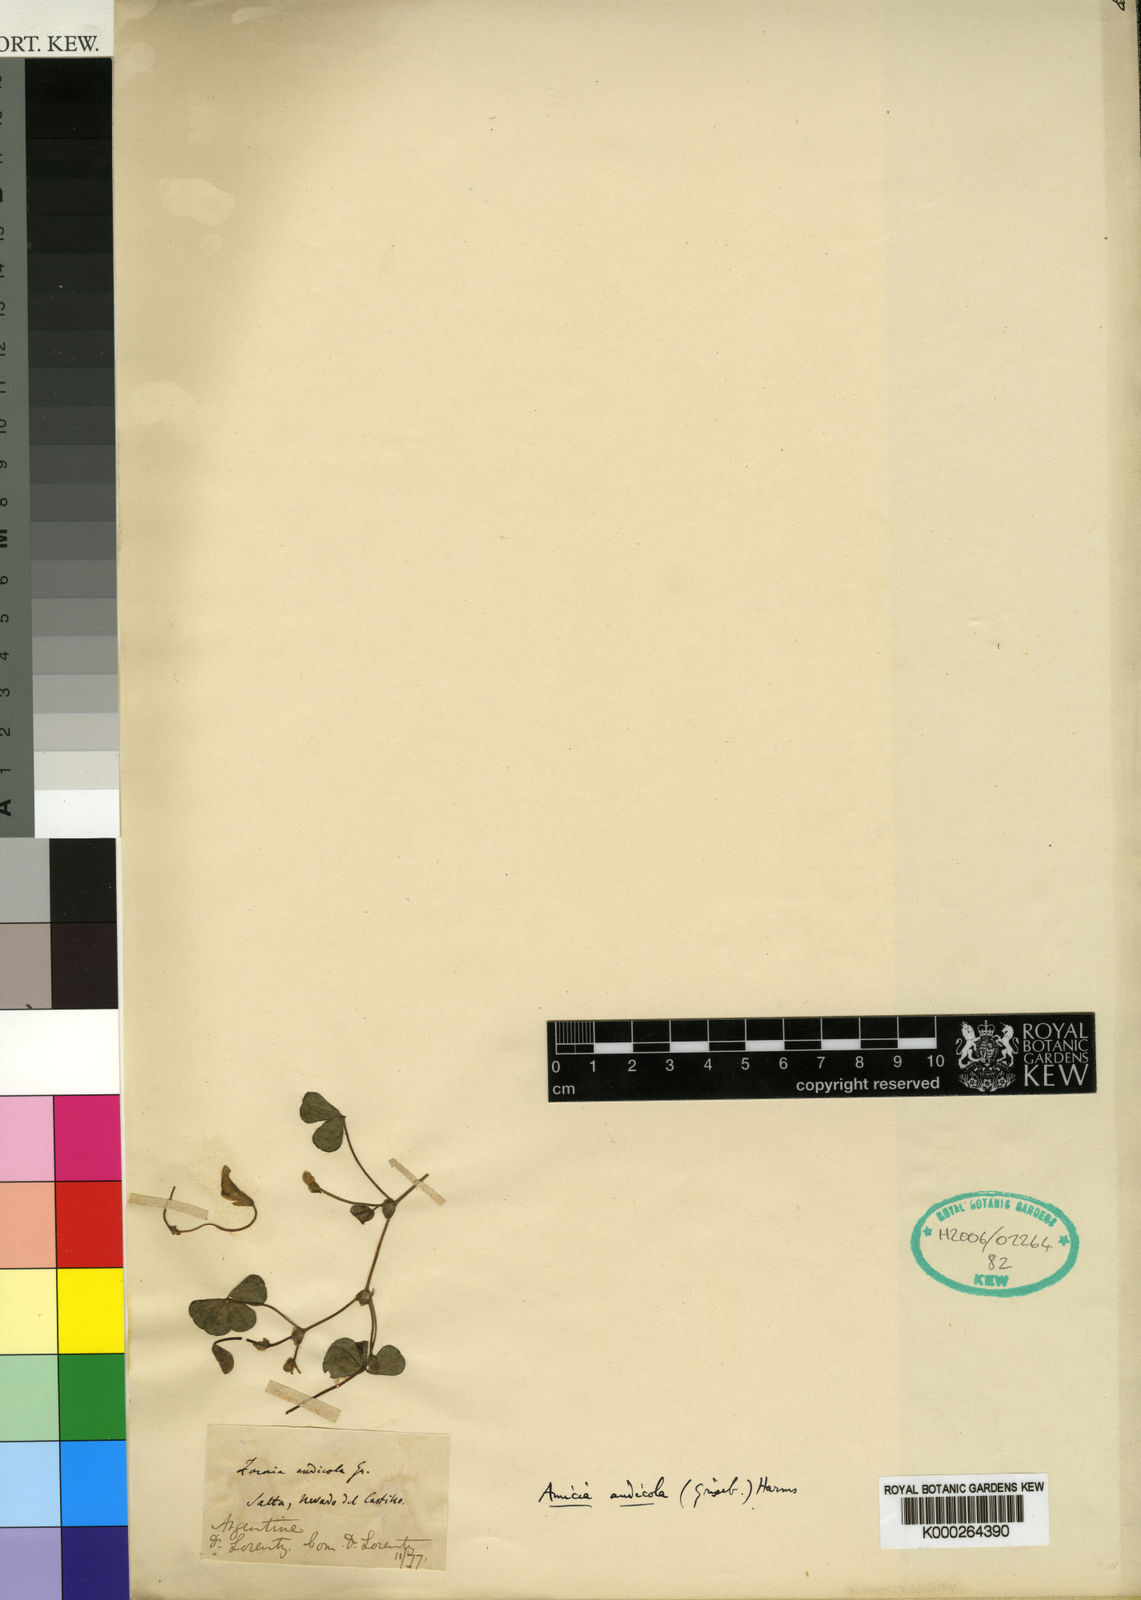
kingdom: Plantae
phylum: Tracheophyta
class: Magnoliopsida
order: Fabales
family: Fabaceae
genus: Amicia
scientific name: Amicia andicola
